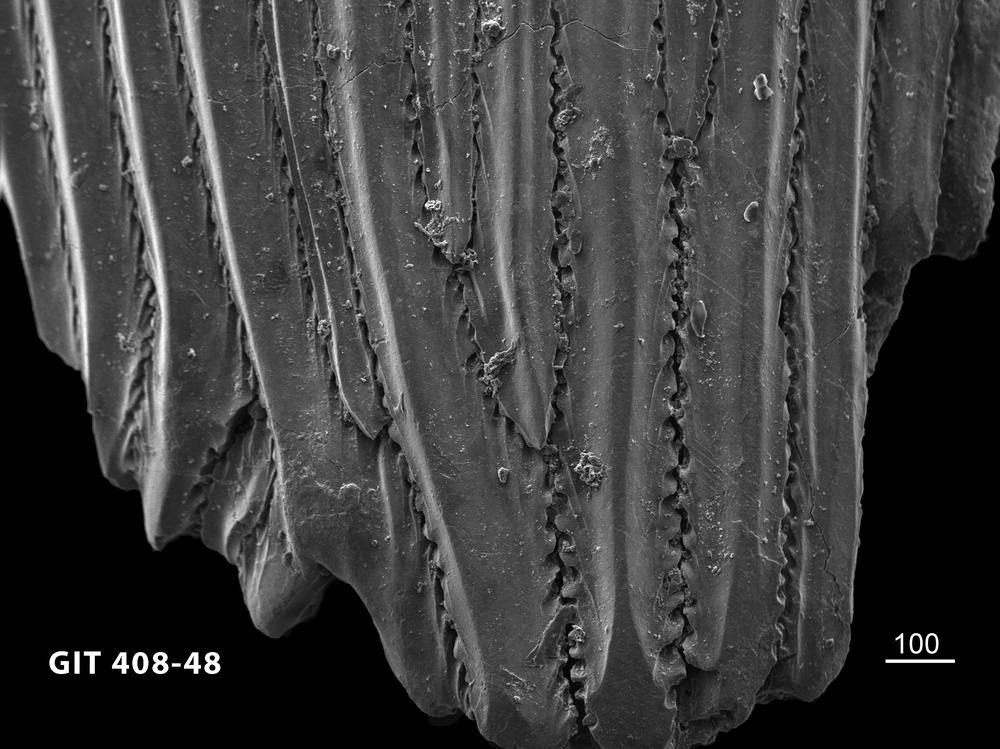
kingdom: Animalia
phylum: Chordata
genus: Archegonaspis
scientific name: Archegonaspis
